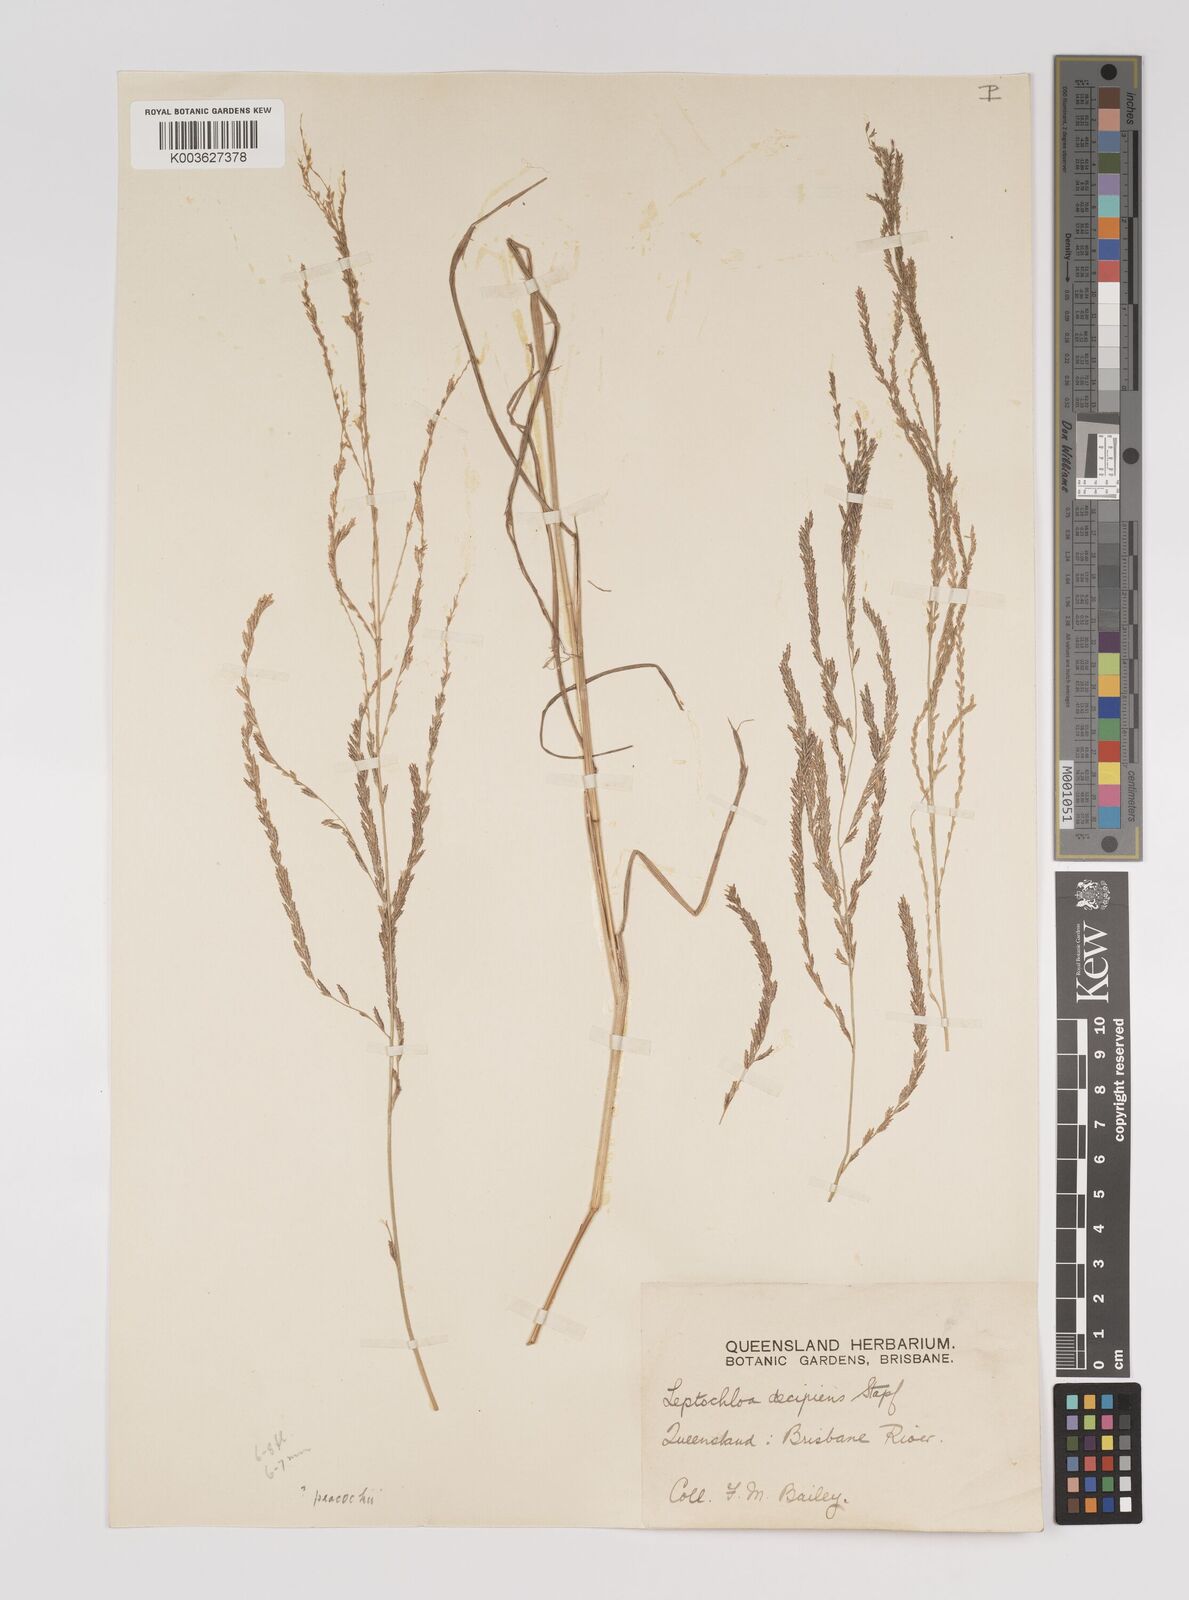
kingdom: Plantae
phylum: Tracheophyta
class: Liliopsida
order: Poales
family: Poaceae
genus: Leptochloa
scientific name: Leptochloa decipiens
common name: Australian sprangletop
